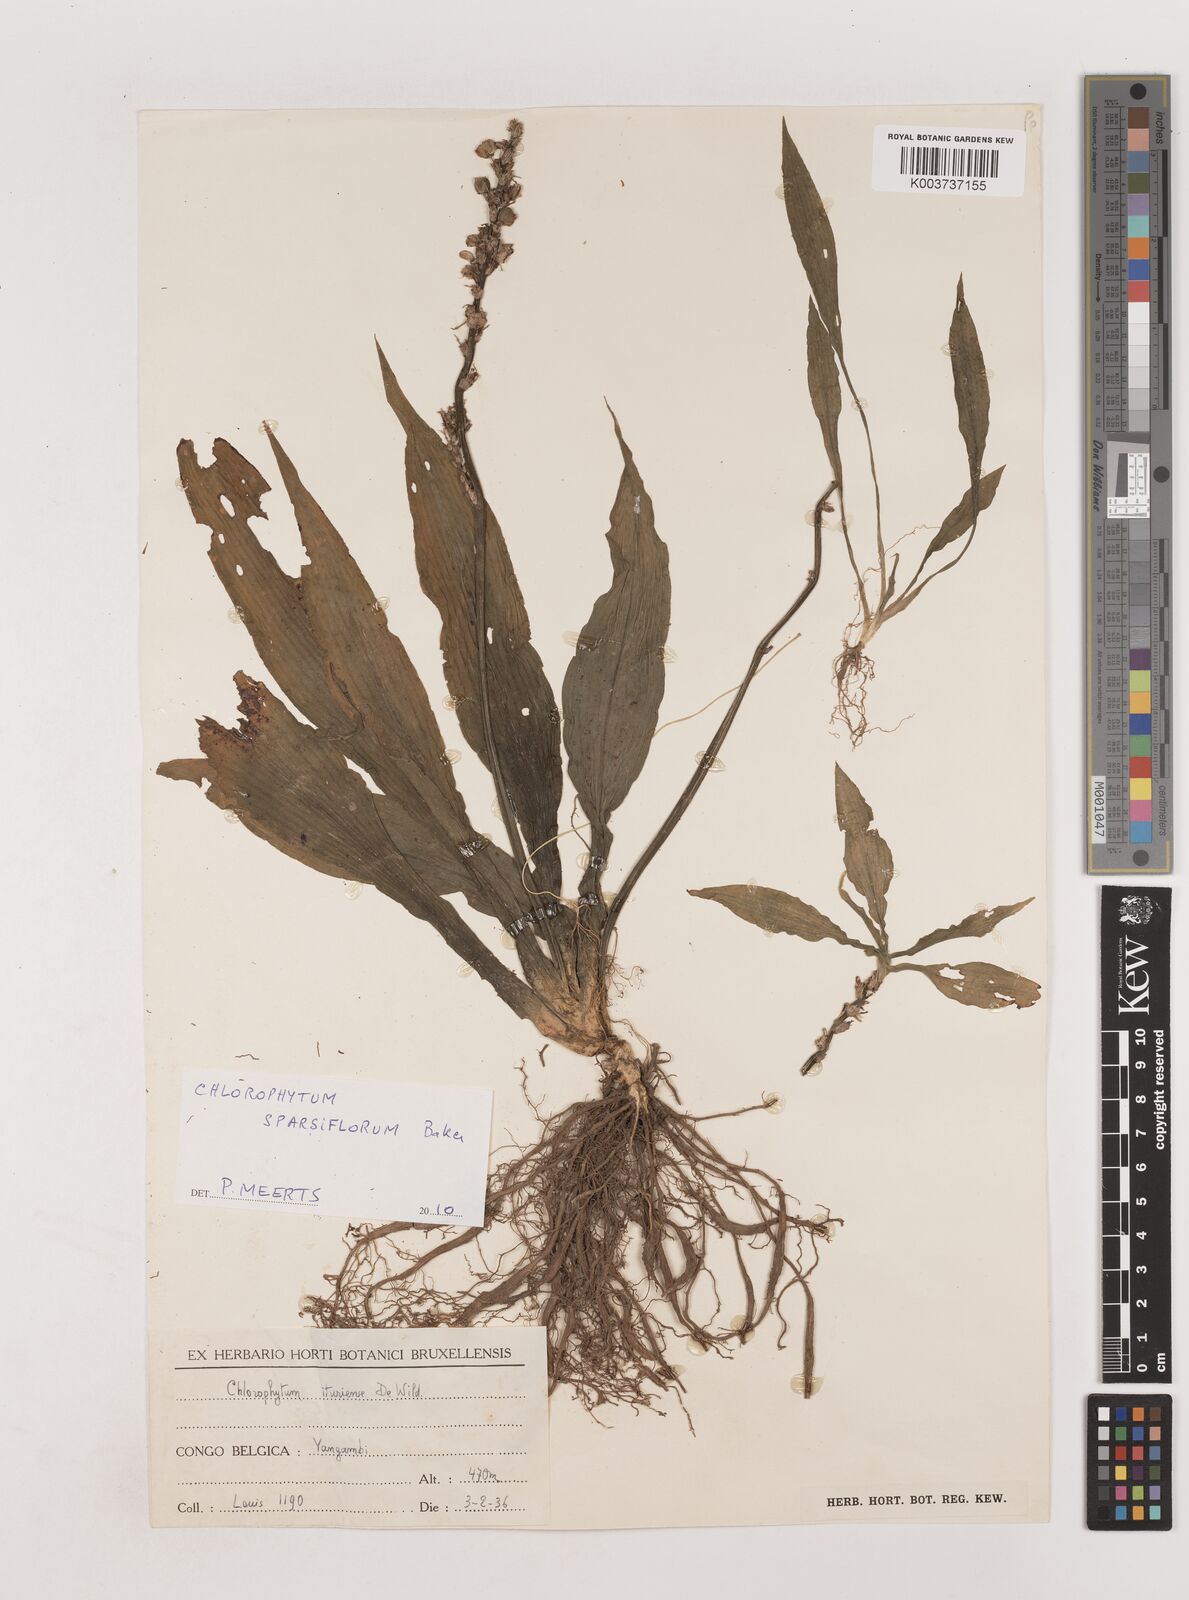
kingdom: Plantae
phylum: Tracheophyta
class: Liliopsida
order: Asparagales
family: Asparagaceae
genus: Chlorophytum
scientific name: Chlorophytum sparsiflorum
